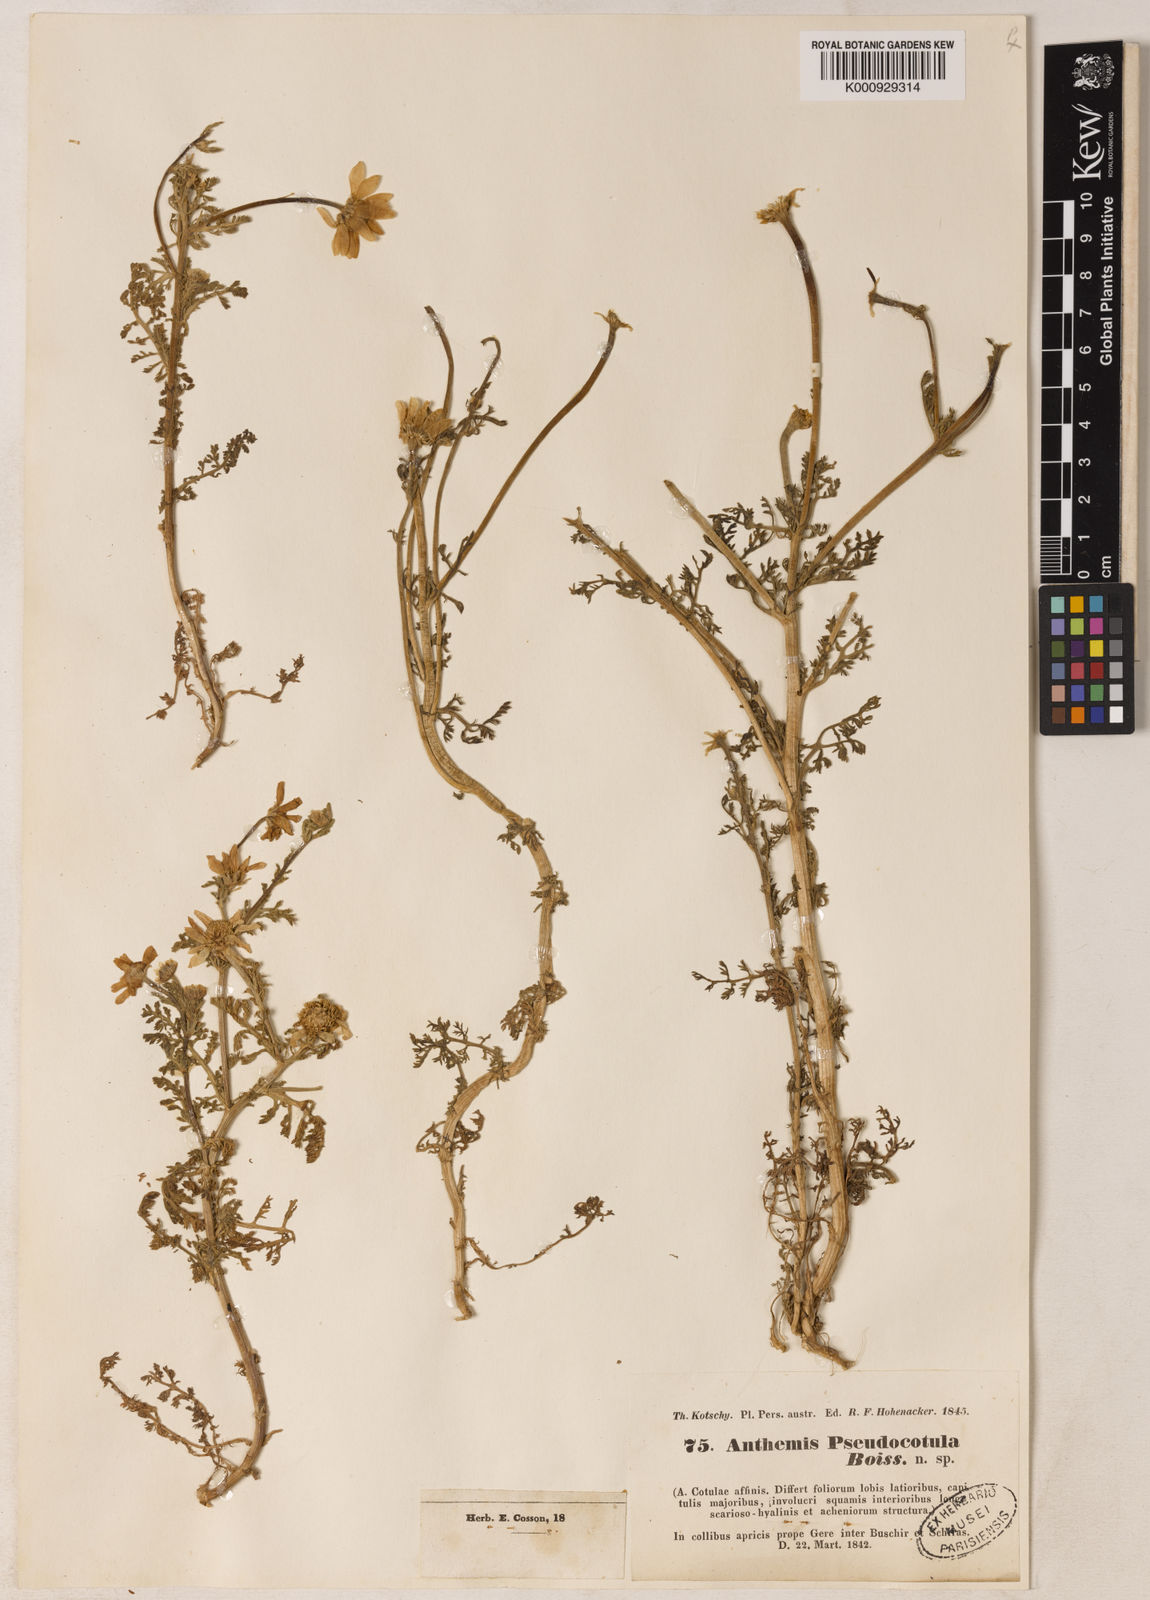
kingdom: Plantae
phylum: Tracheophyta
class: Magnoliopsida
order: Asterales
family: Asteraceae
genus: Anthemis
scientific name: Anthemis pseudocotula
